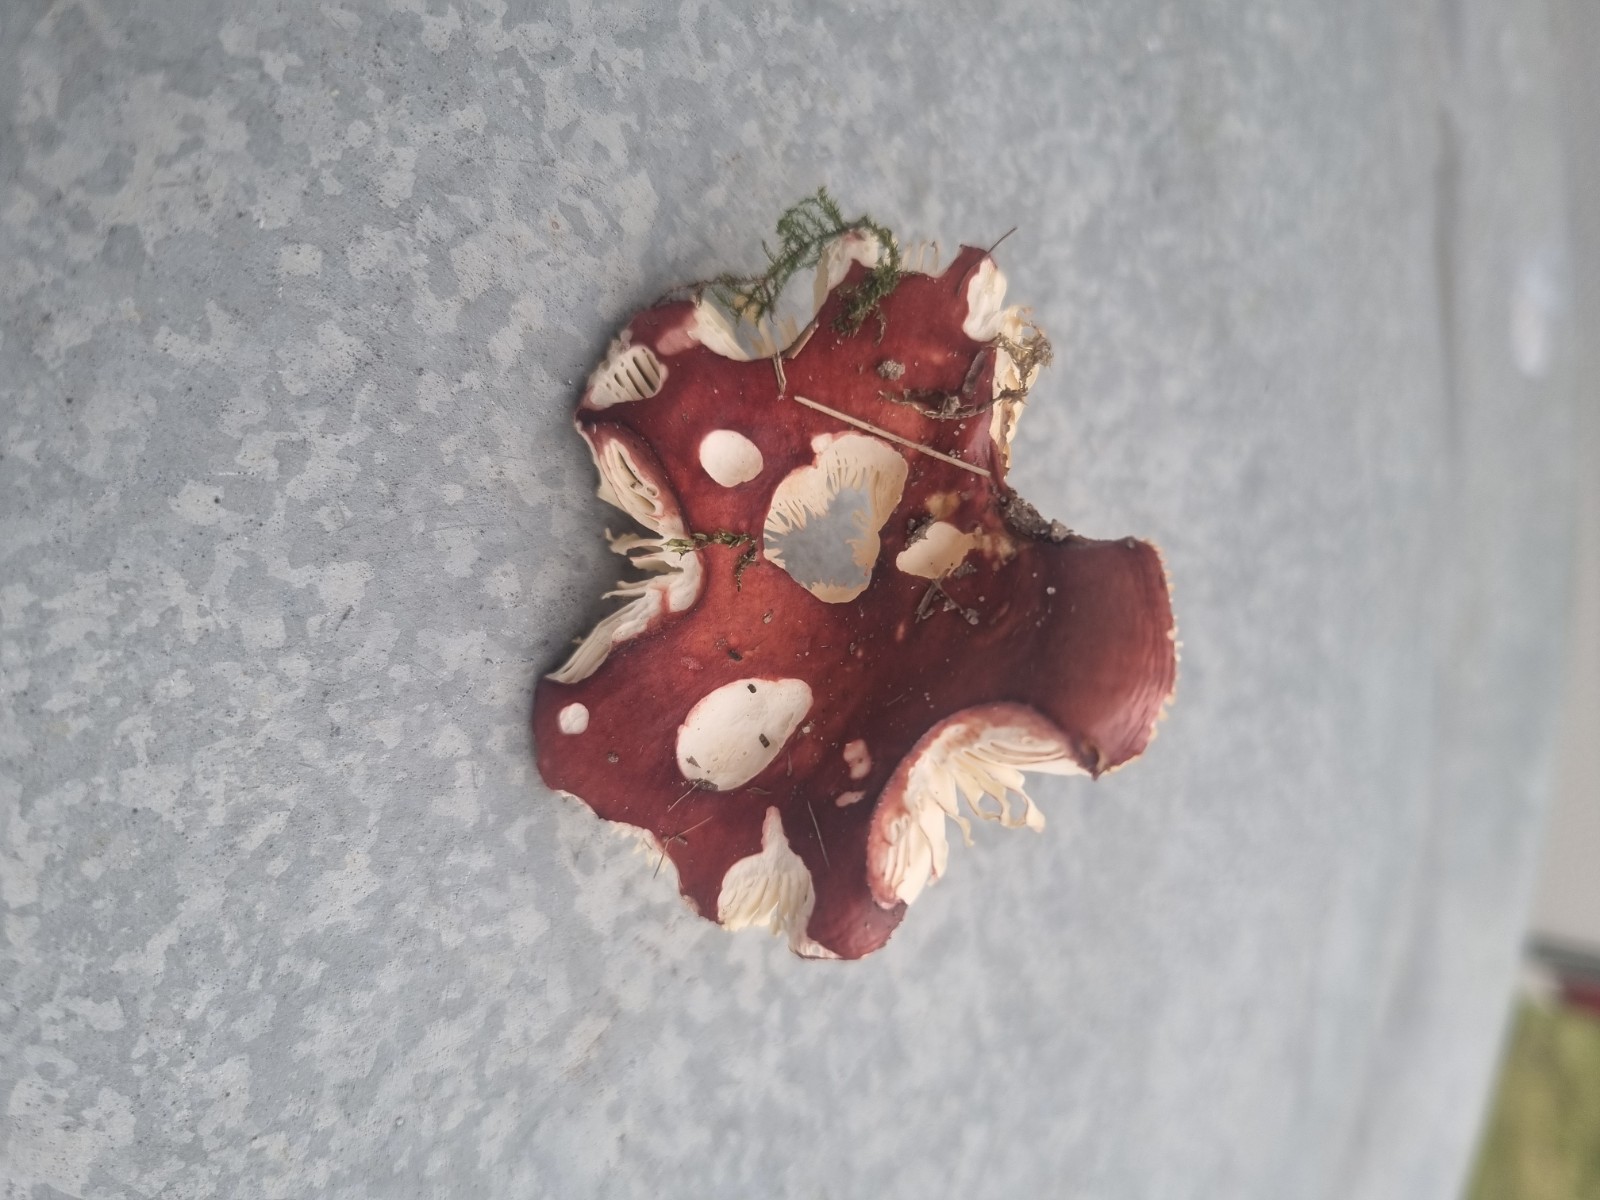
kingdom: Fungi
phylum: Basidiomycota
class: Agaricomycetes
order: Russulales
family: Russulaceae
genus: Russula
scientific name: Russula
